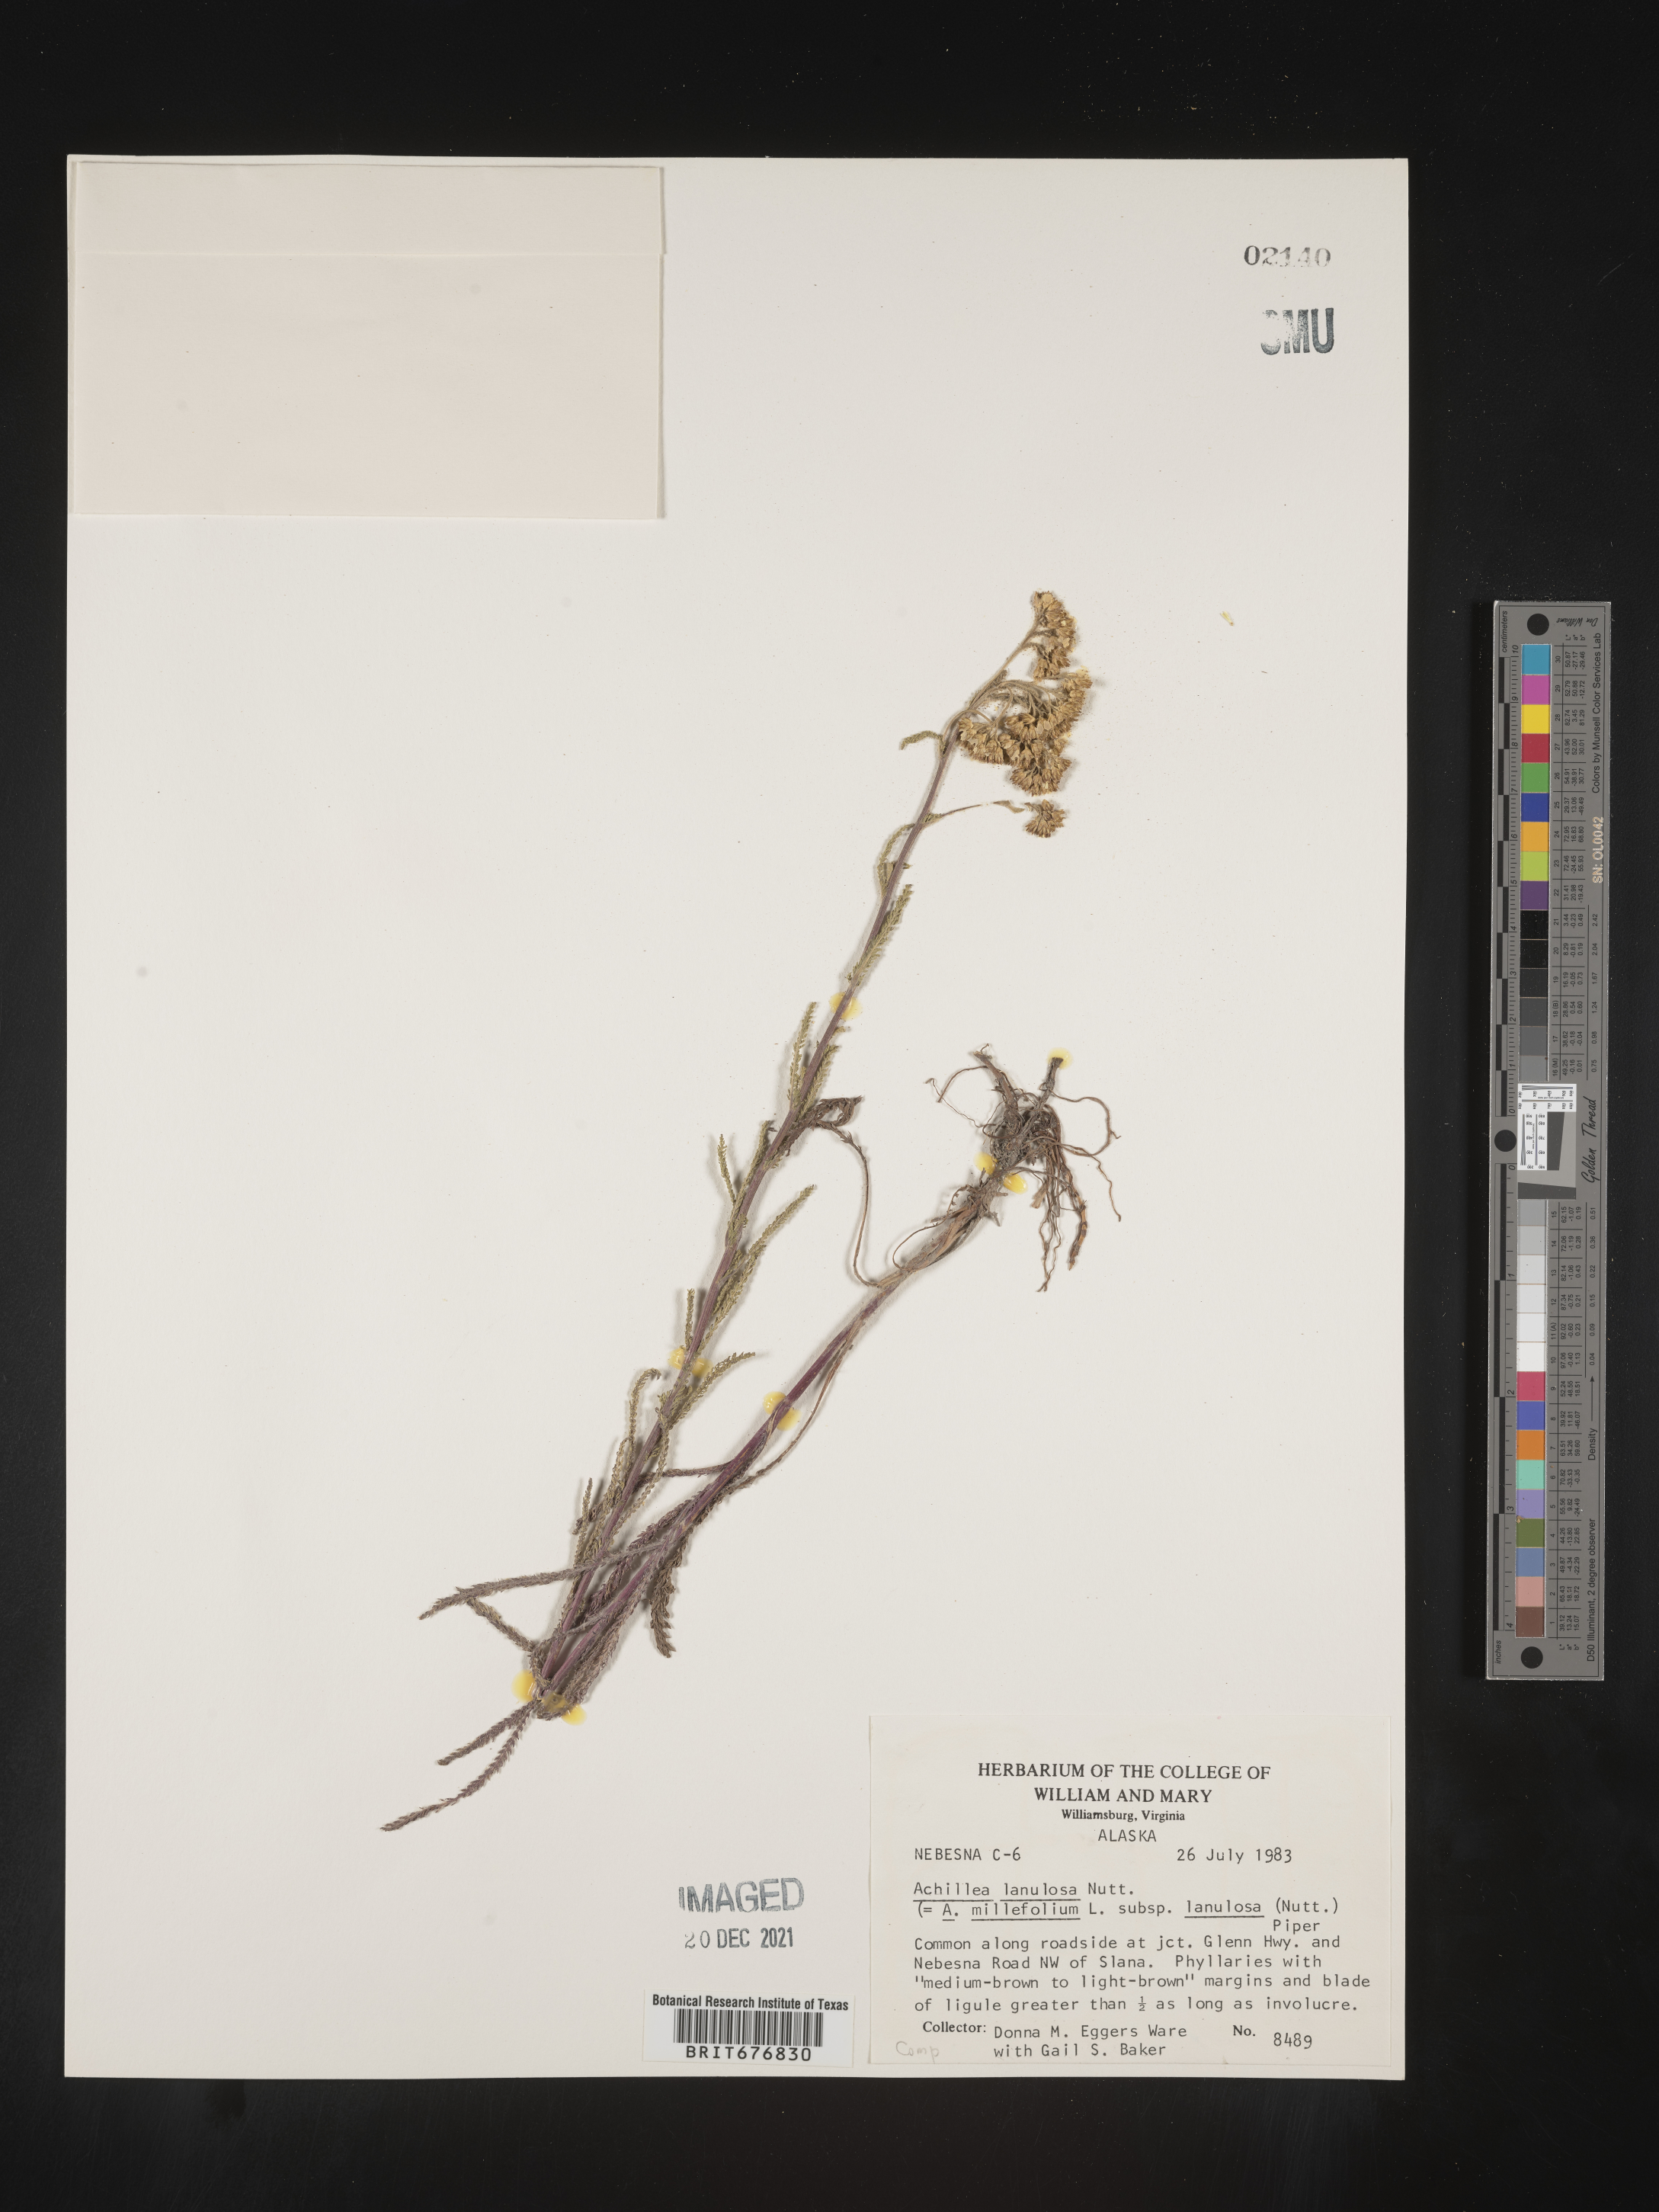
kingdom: Plantae
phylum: Tracheophyta
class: Magnoliopsida
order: Asterales
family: Asteraceae
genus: Achillea
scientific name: Achillea millefolium
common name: Yarrow
